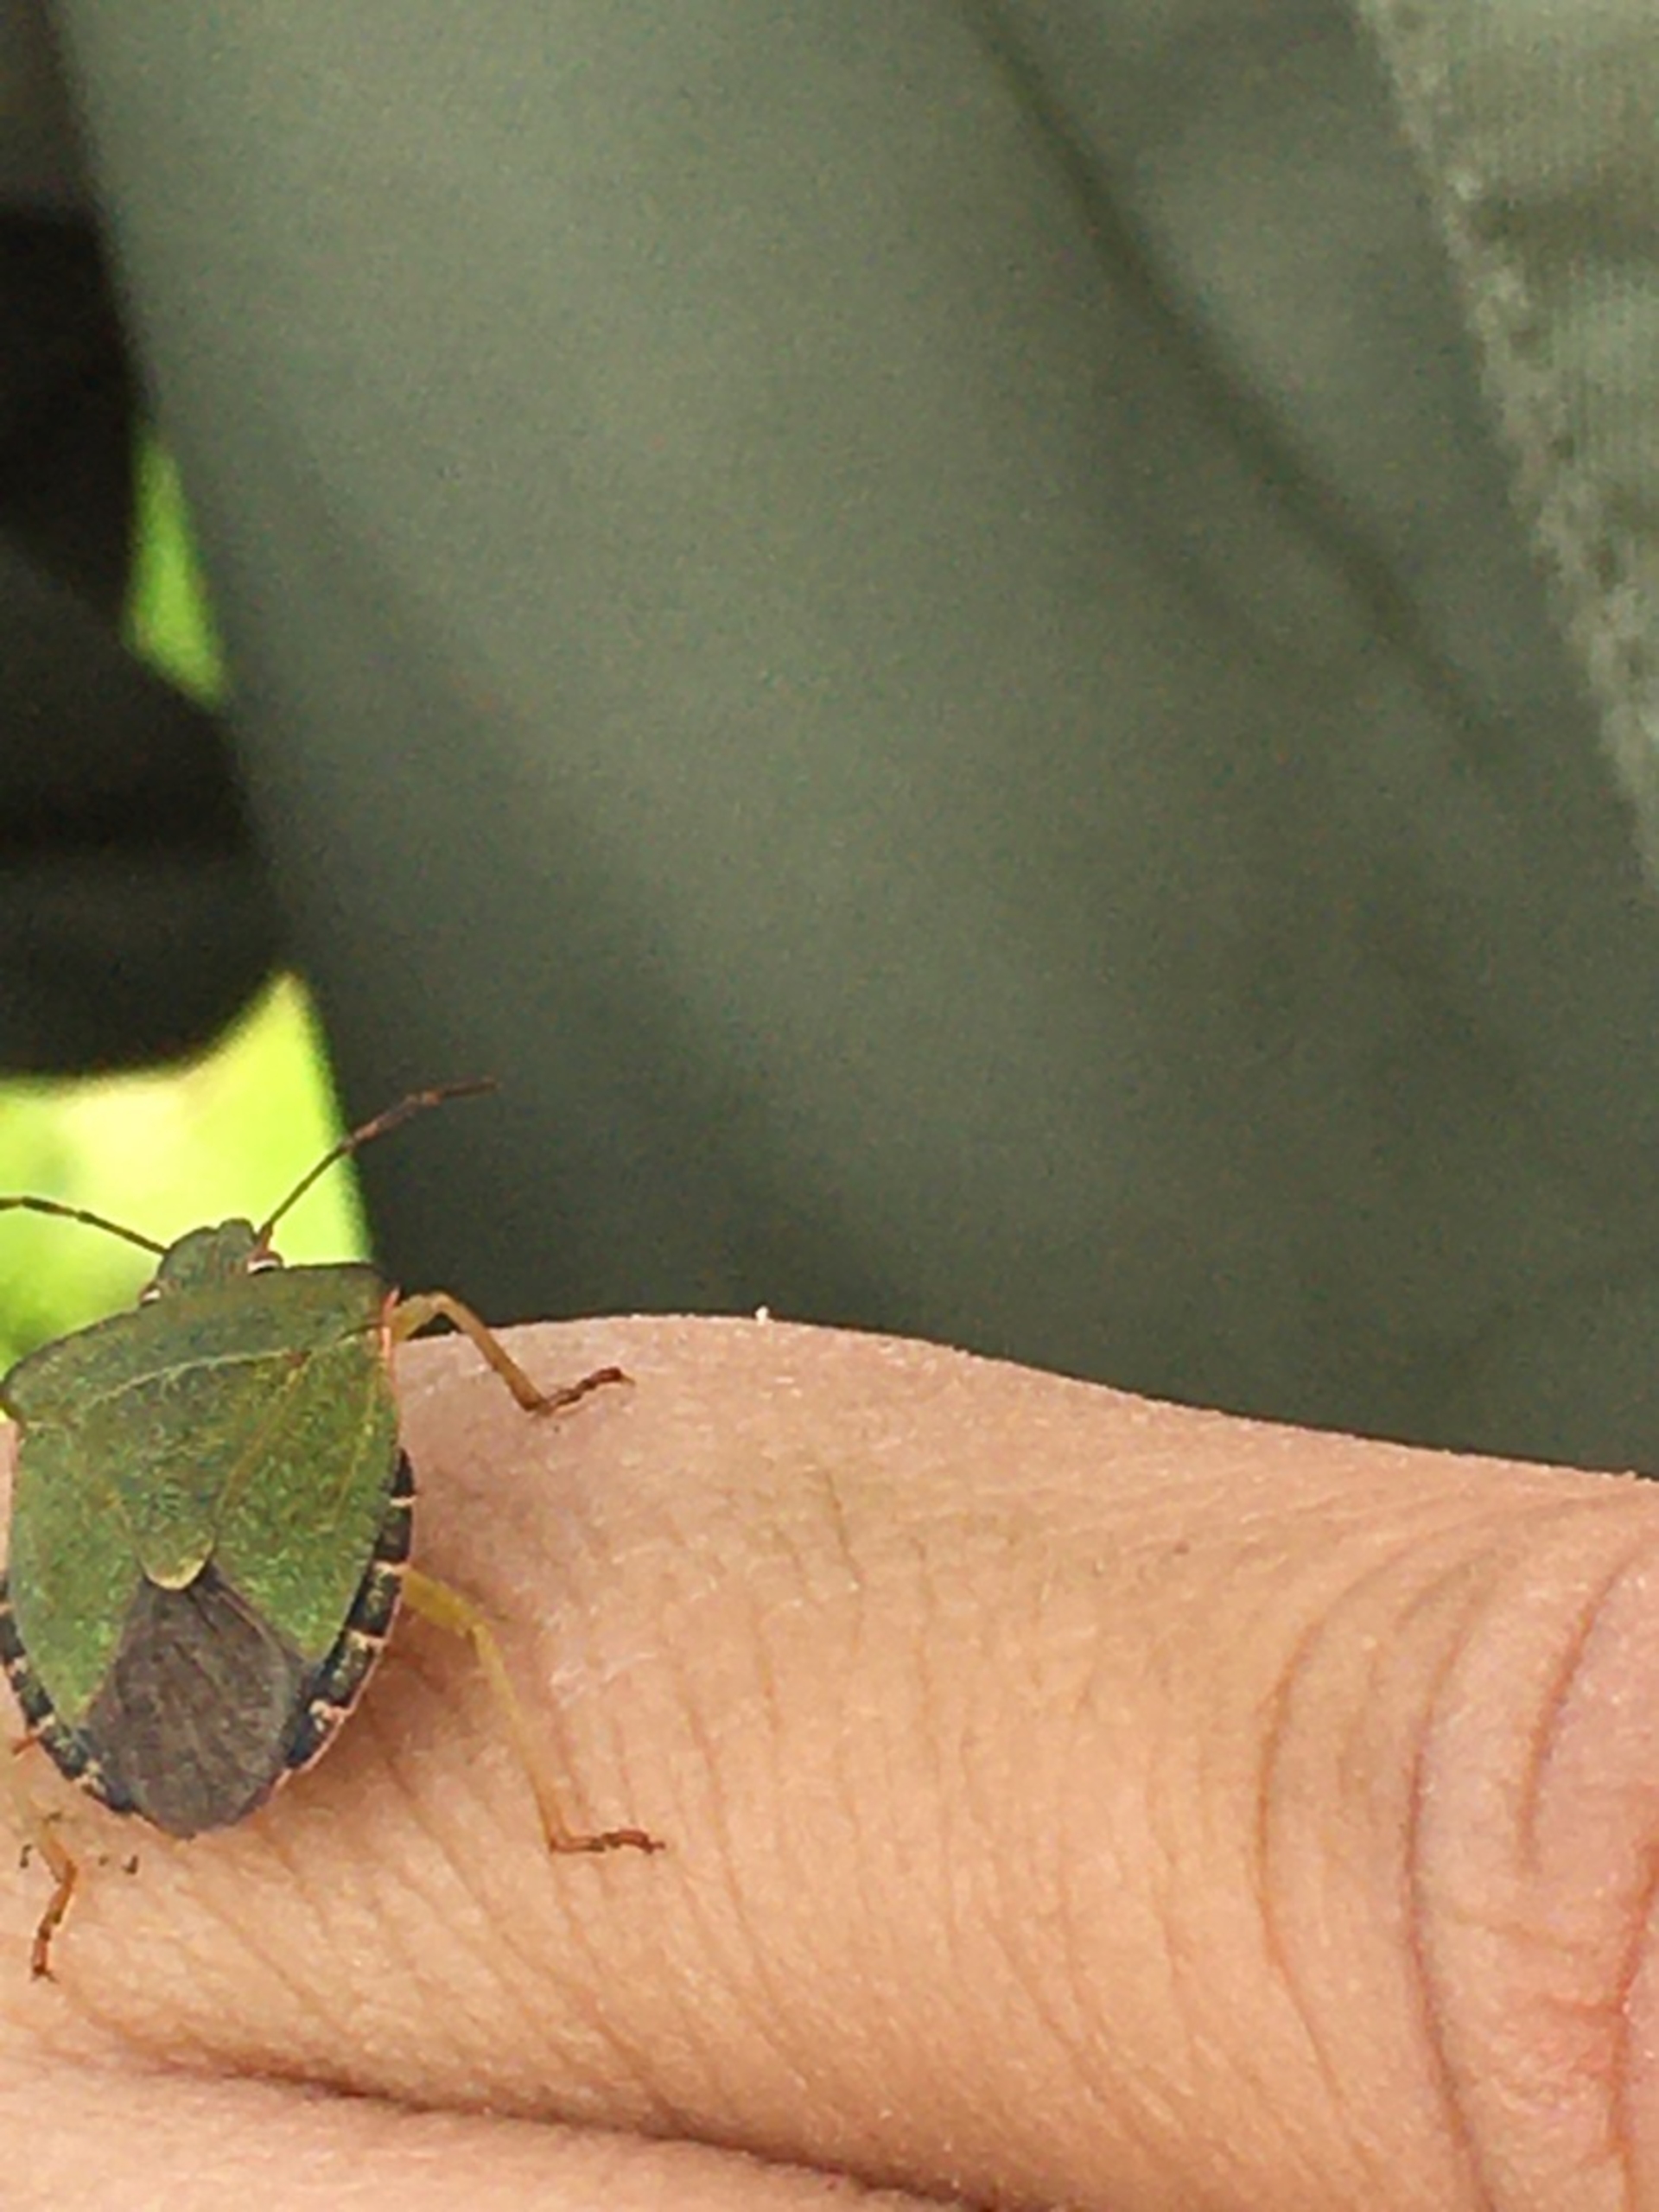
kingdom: Animalia
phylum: Arthropoda
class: Insecta
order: Hemiptera
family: Pentatomidae
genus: Palomena
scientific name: Palomena prasina
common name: Grøn bredtæge
